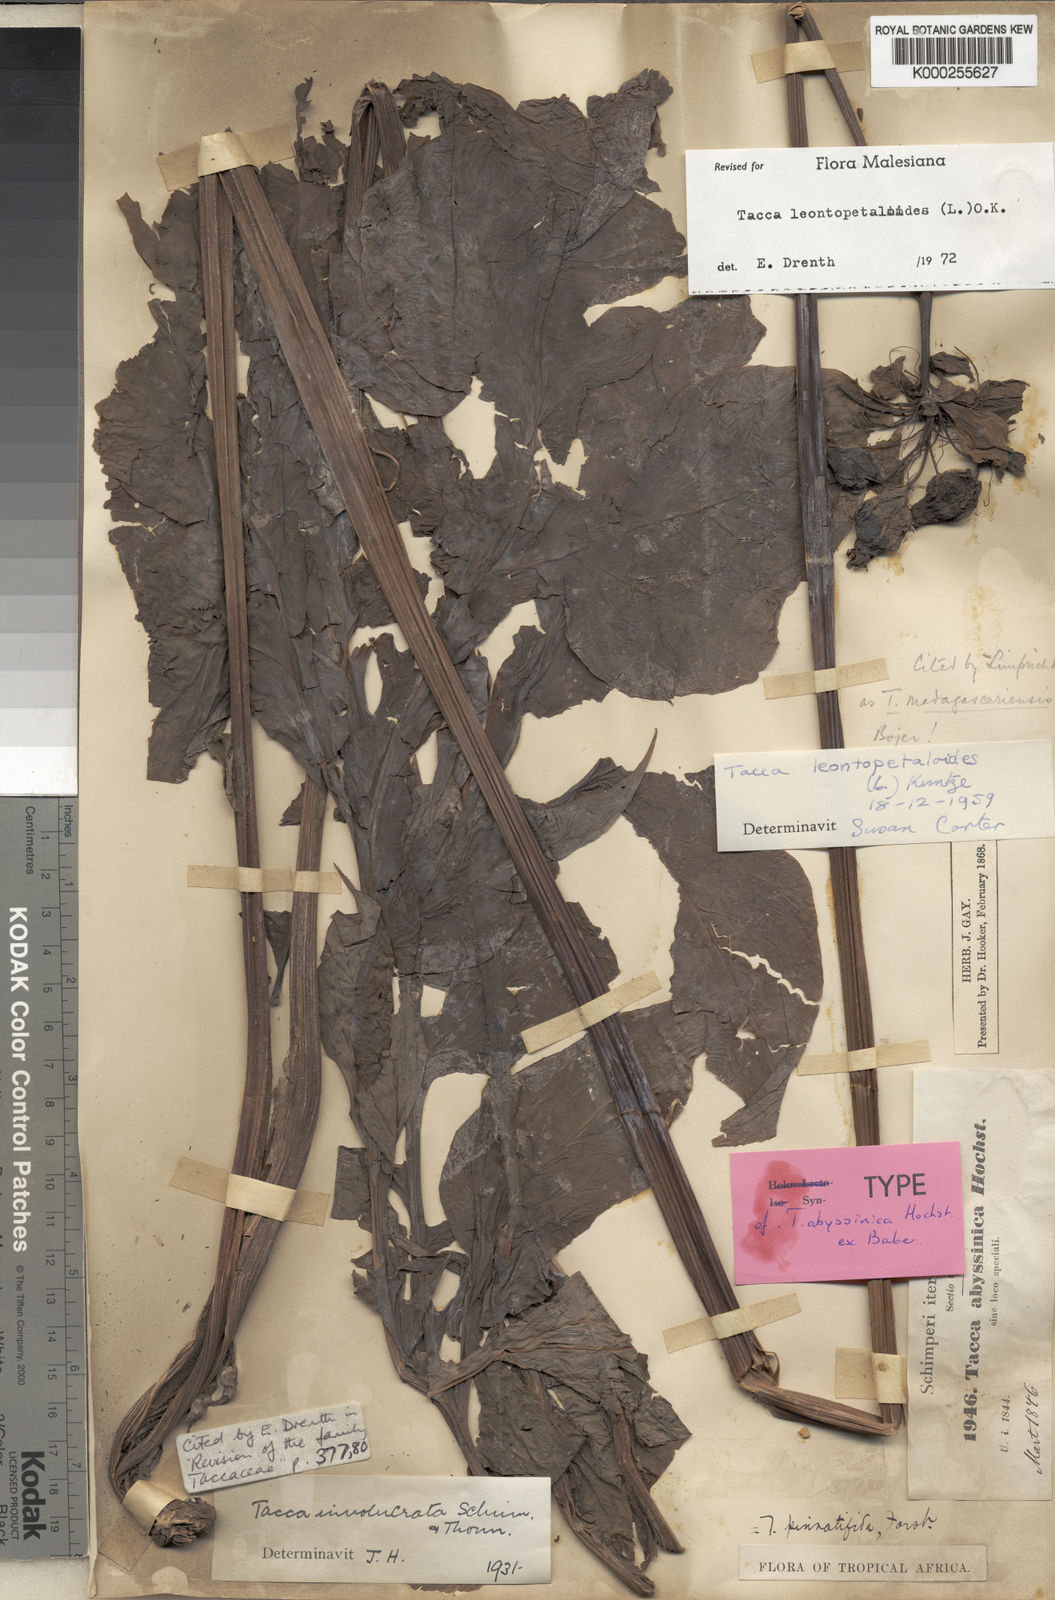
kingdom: Plantae
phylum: Tracheophyta
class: Liliopsida
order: Dioscoreales
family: Dioscoreaceae
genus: Tacca
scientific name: Tacca leontopetaloides
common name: Arrowroot
